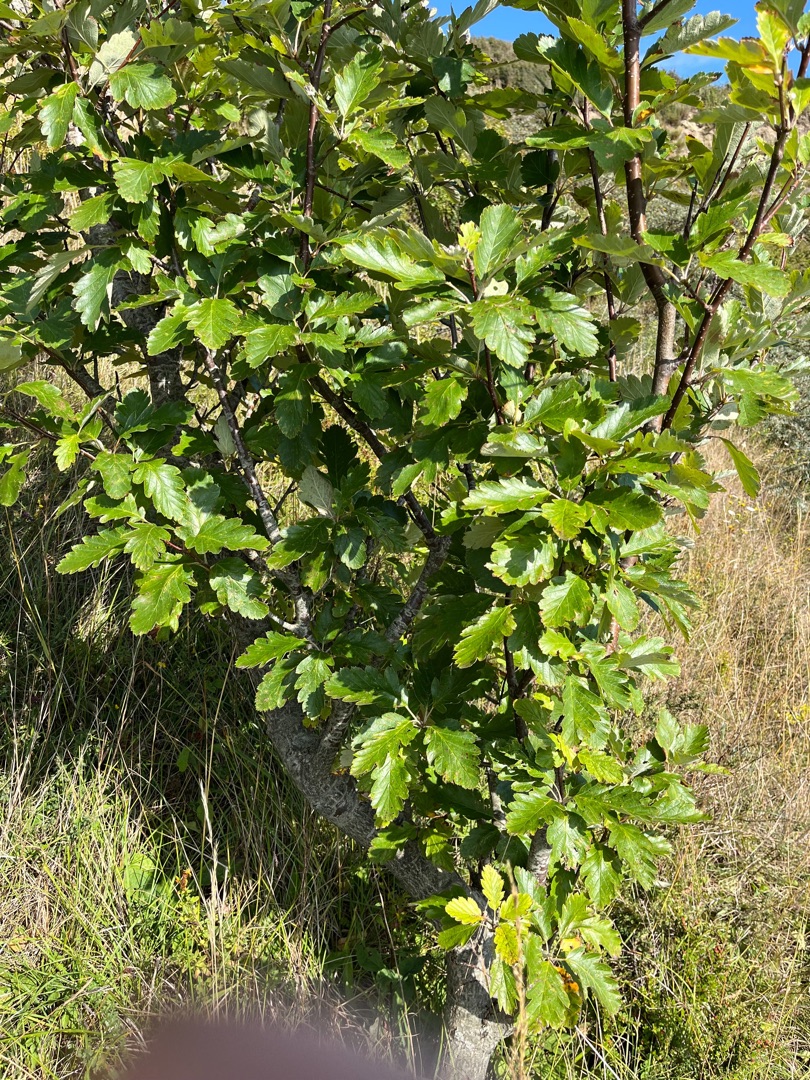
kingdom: Plantae
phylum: Tracheophyta
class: Magnoliopsida
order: Rosales
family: Rosaceae
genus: Scandosorbus
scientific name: Scandosorbus intermedia
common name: Selje-røn
